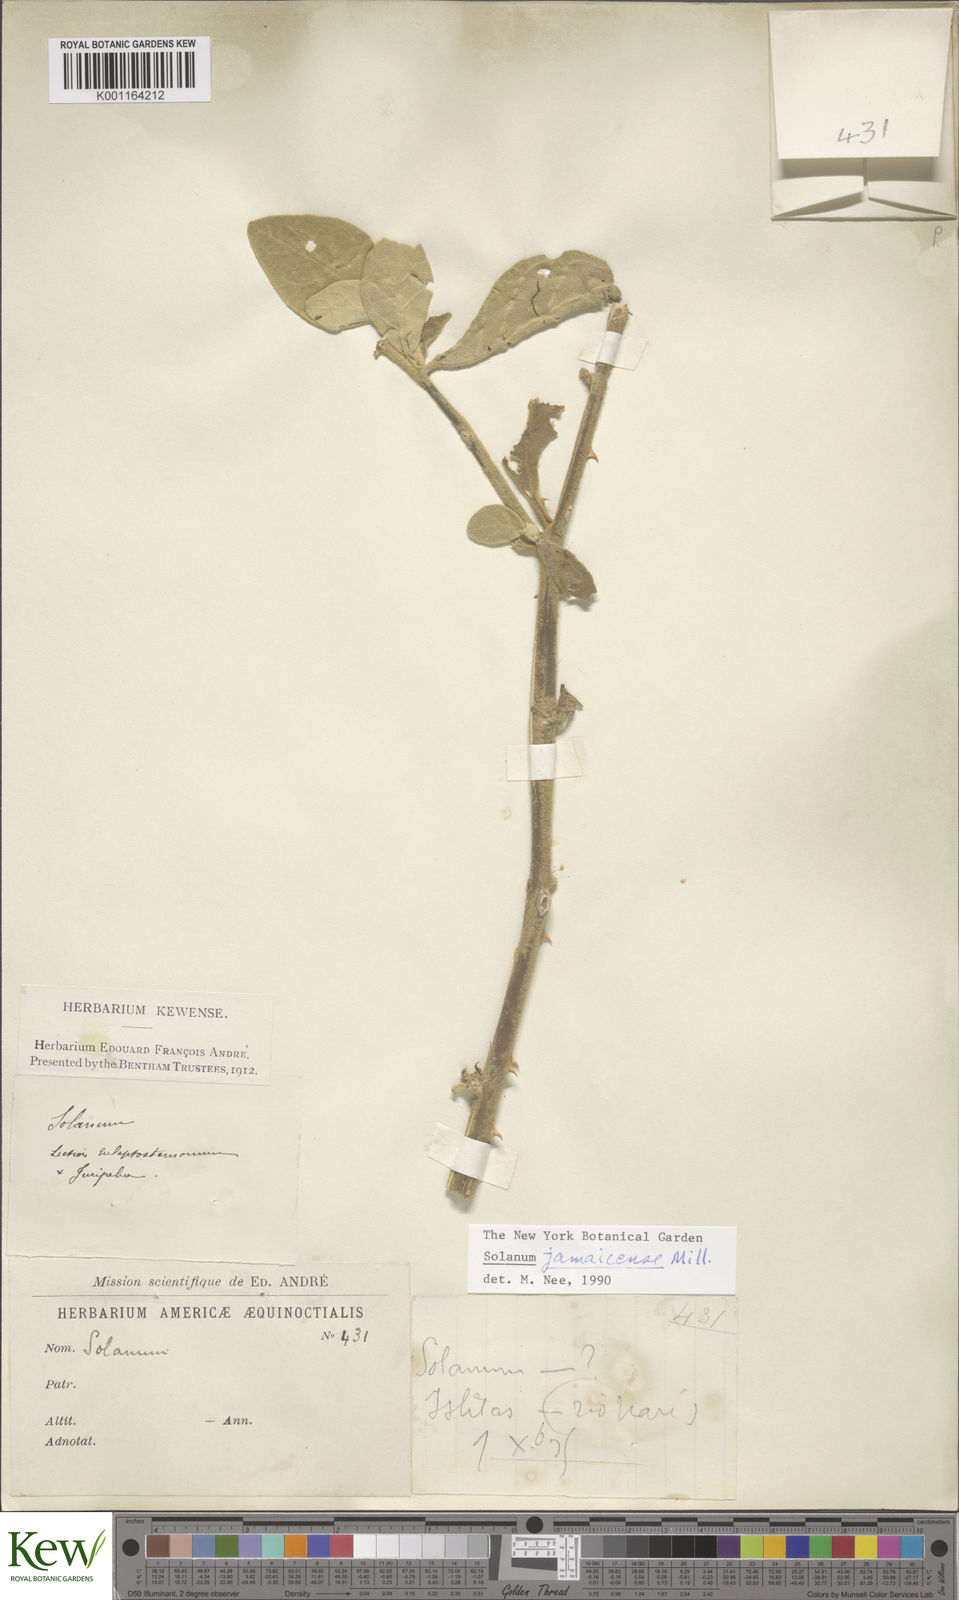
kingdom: Plantae
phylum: Tracheophyta
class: Magnoliopsida
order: Solanales
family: Solanaceae
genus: Solanum
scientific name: Solanum jamaicense
